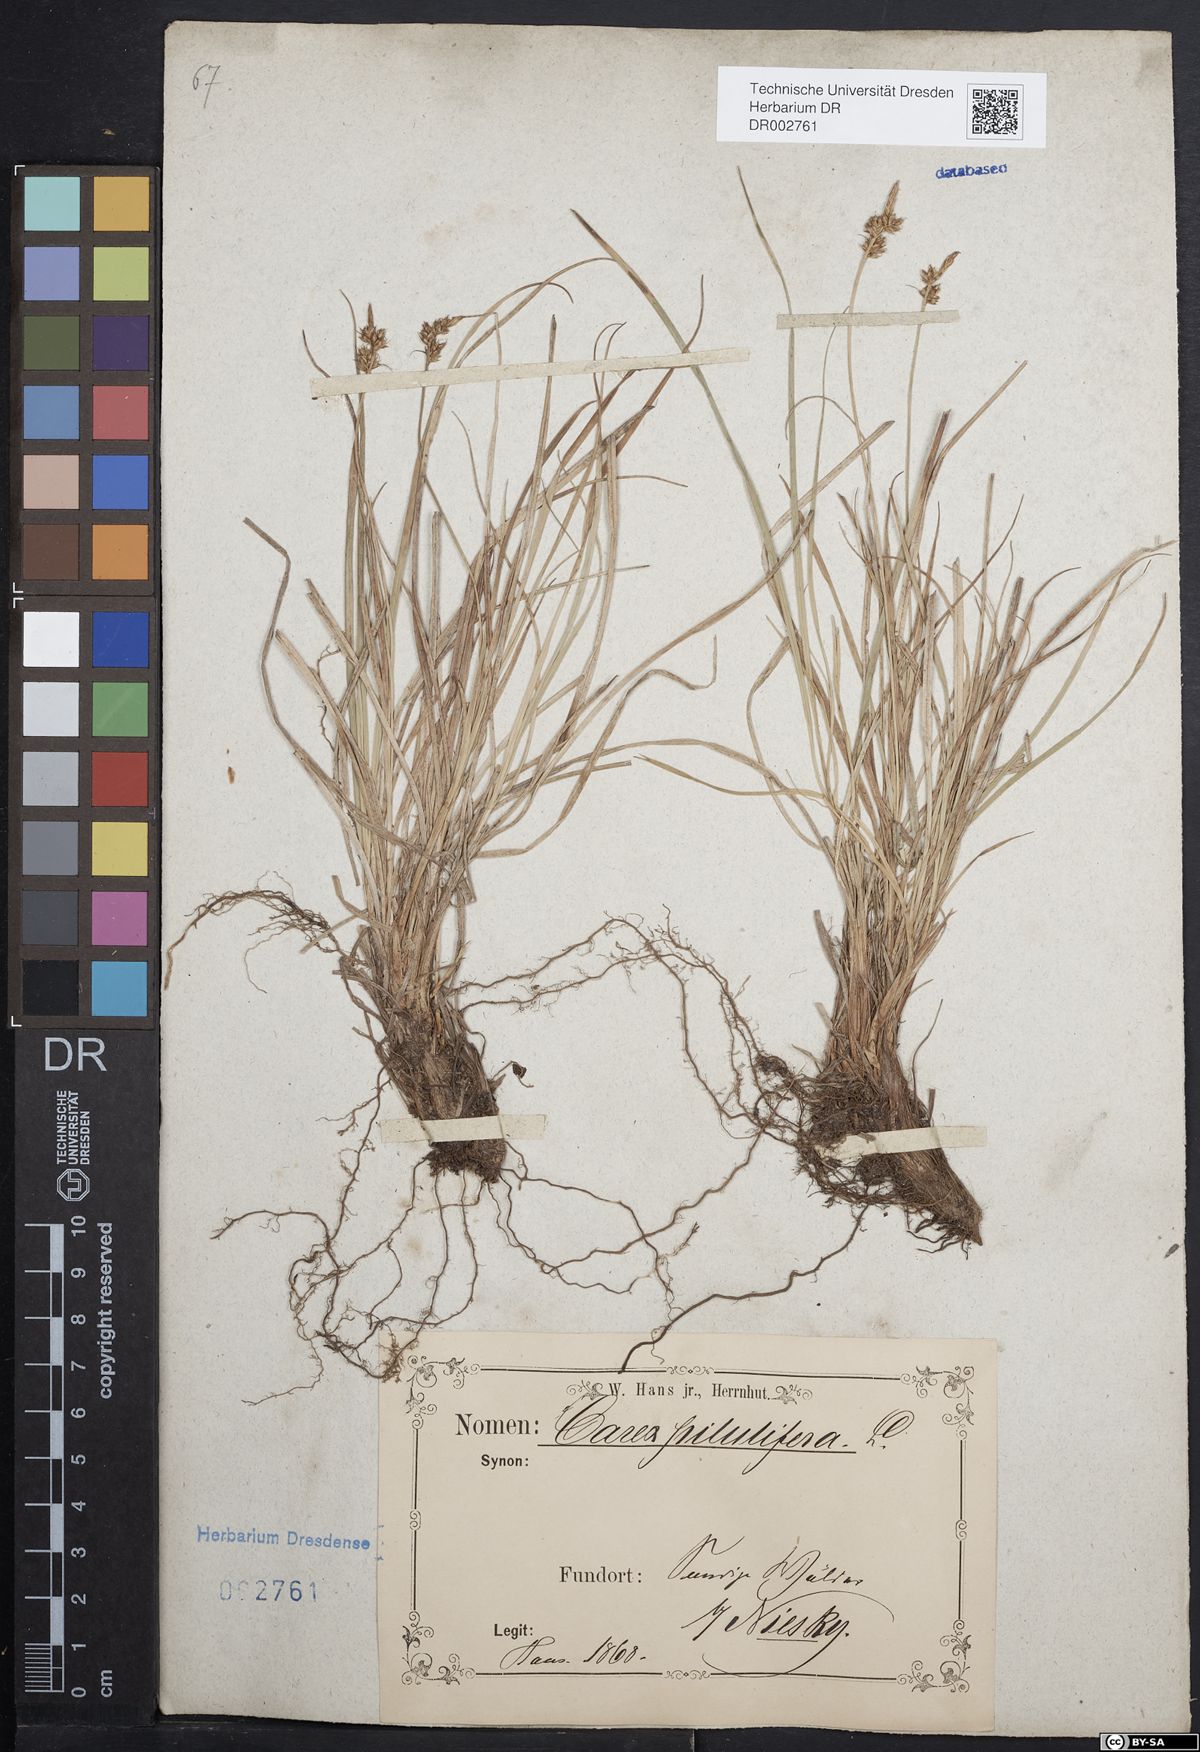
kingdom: Plantae
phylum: Tracheophyta
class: Liliopsida
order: Poales
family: Cyperaceae
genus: Carex
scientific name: Carex caryophyllea
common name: Spring sedge
